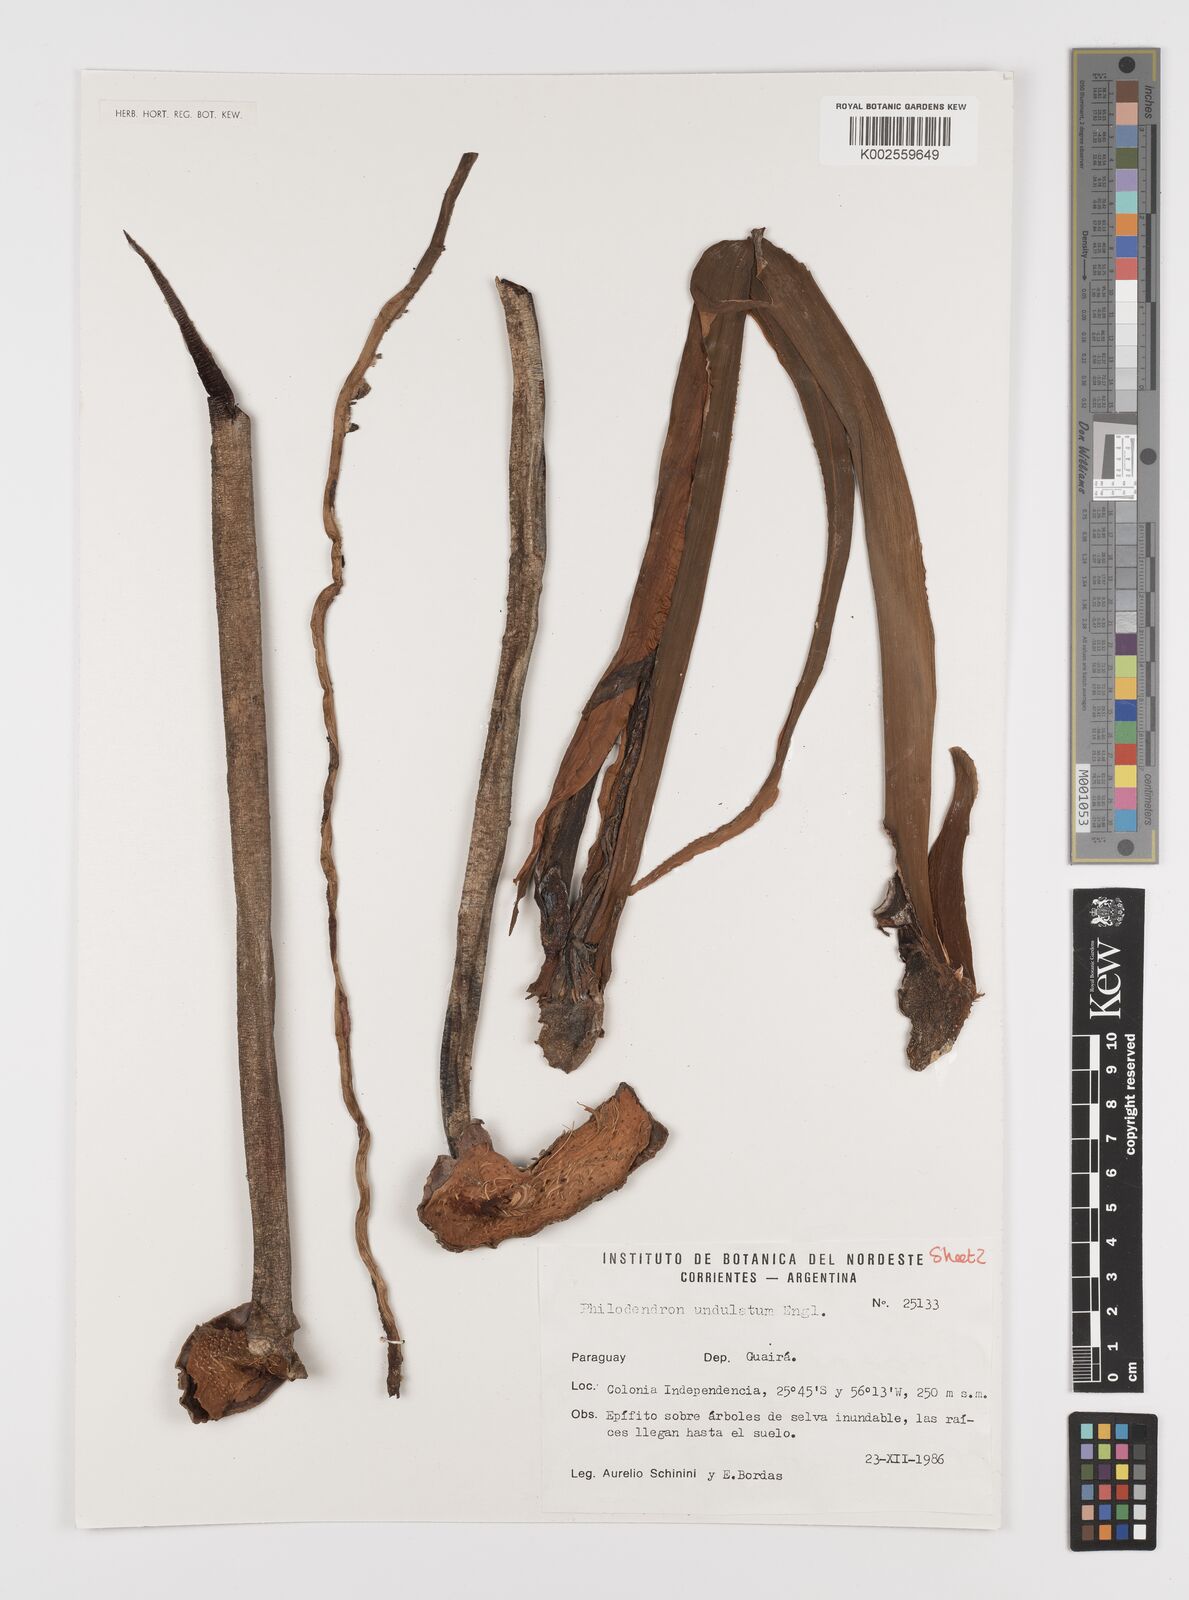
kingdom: Plantae
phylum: Tracheophyta
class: Liliopsida
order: Alismatales
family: Araceae
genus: Thaumatophyllum
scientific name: Thaumatophyllum undulatum
